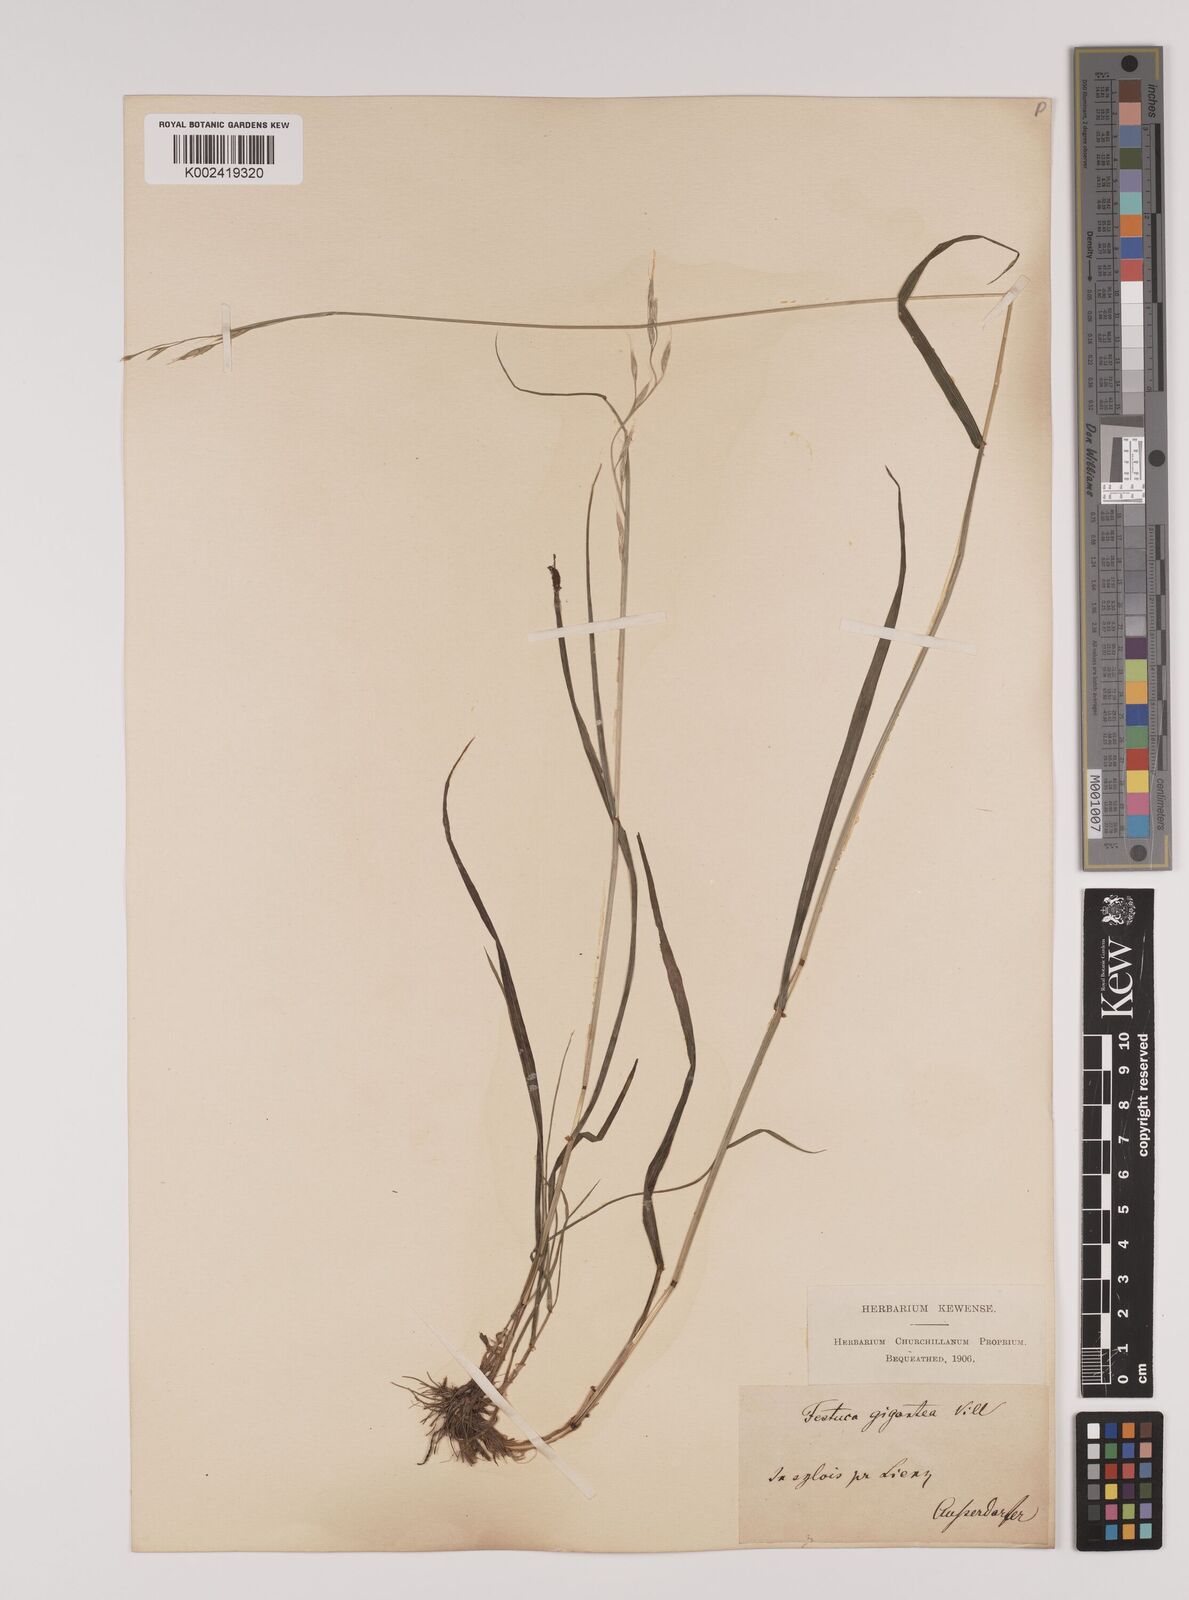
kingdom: Plantae
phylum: Tracheophyta
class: Liliopsida
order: Poales
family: Poaceae
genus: Lolium
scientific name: Lolium giganteum
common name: Giant fescue
